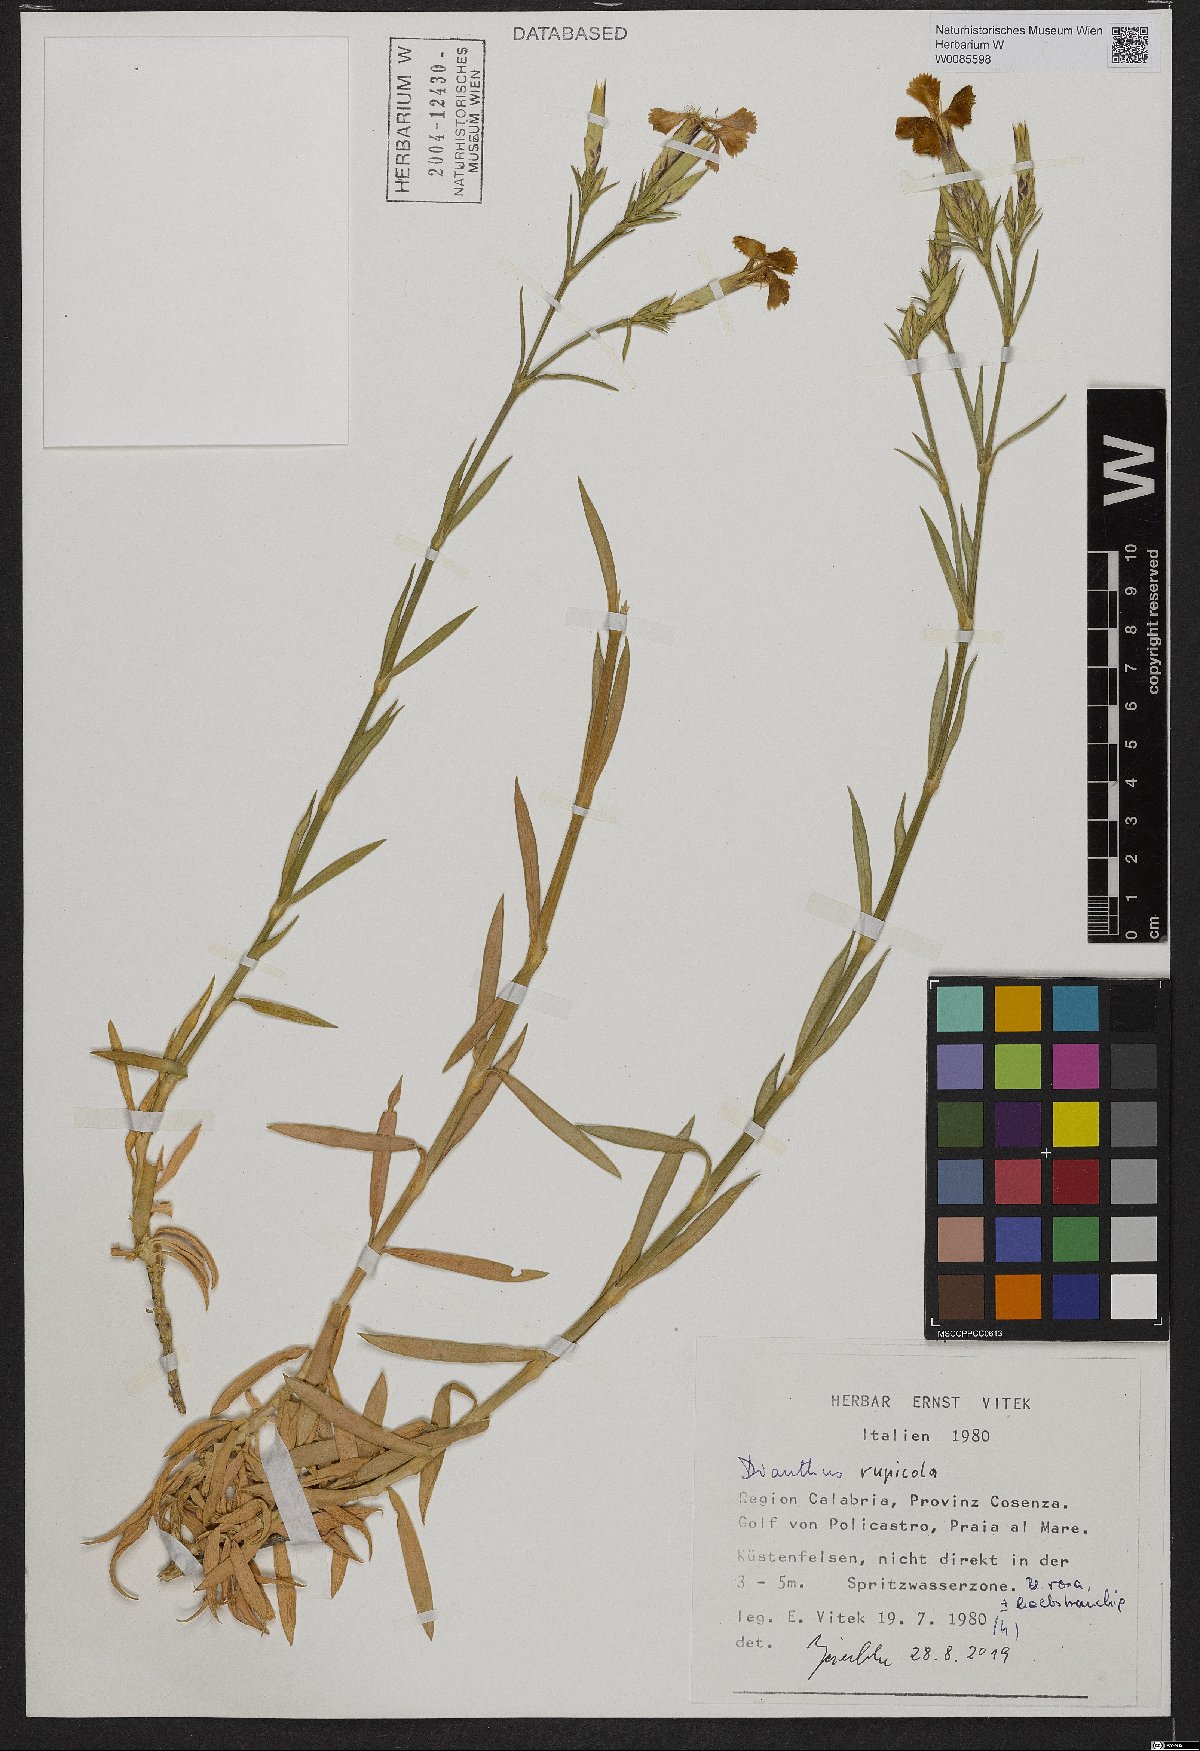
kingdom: Plantae
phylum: Tracheophyta
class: Magnoliopsida
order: Caryophyllales
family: Caryophyllaceae
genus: Dianthus
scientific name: Dianthus rupicola
